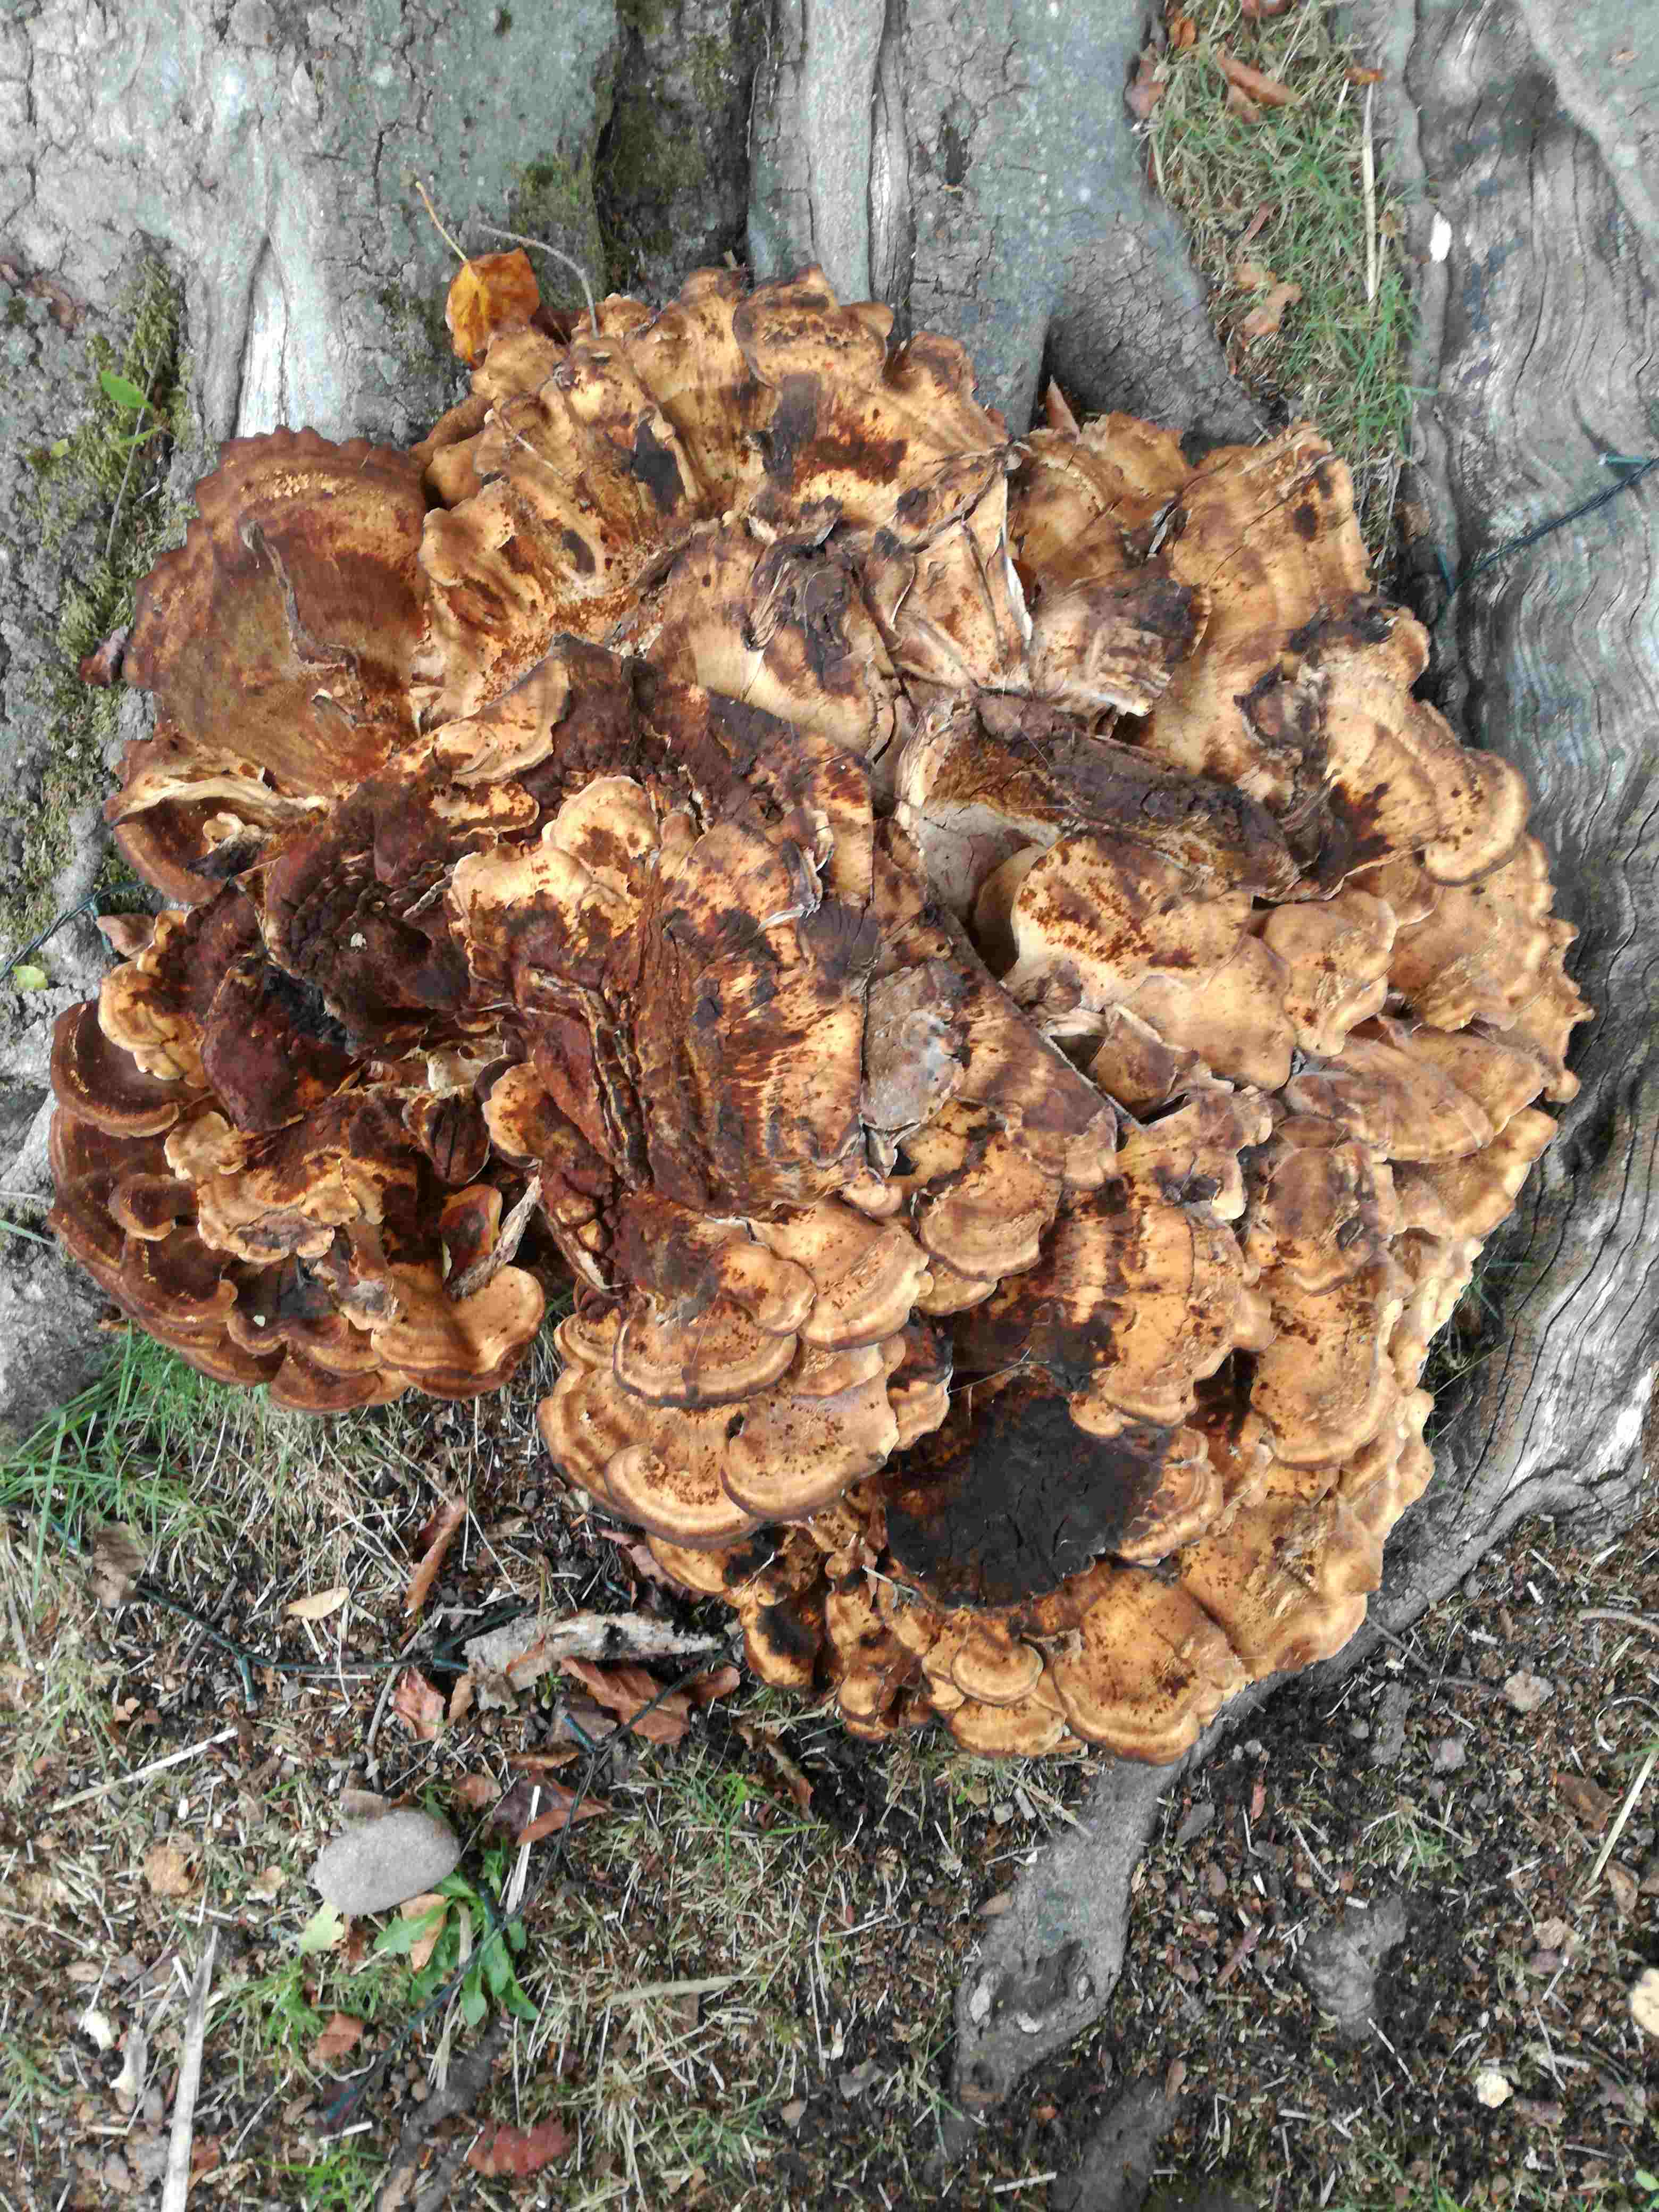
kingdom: Fungi
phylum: Basidiomycota
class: Agaricomycetes
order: Polyporales
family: Meripilaceae
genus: Meripilus
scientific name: Meripilus giganteus
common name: kæmpeporesvamp
